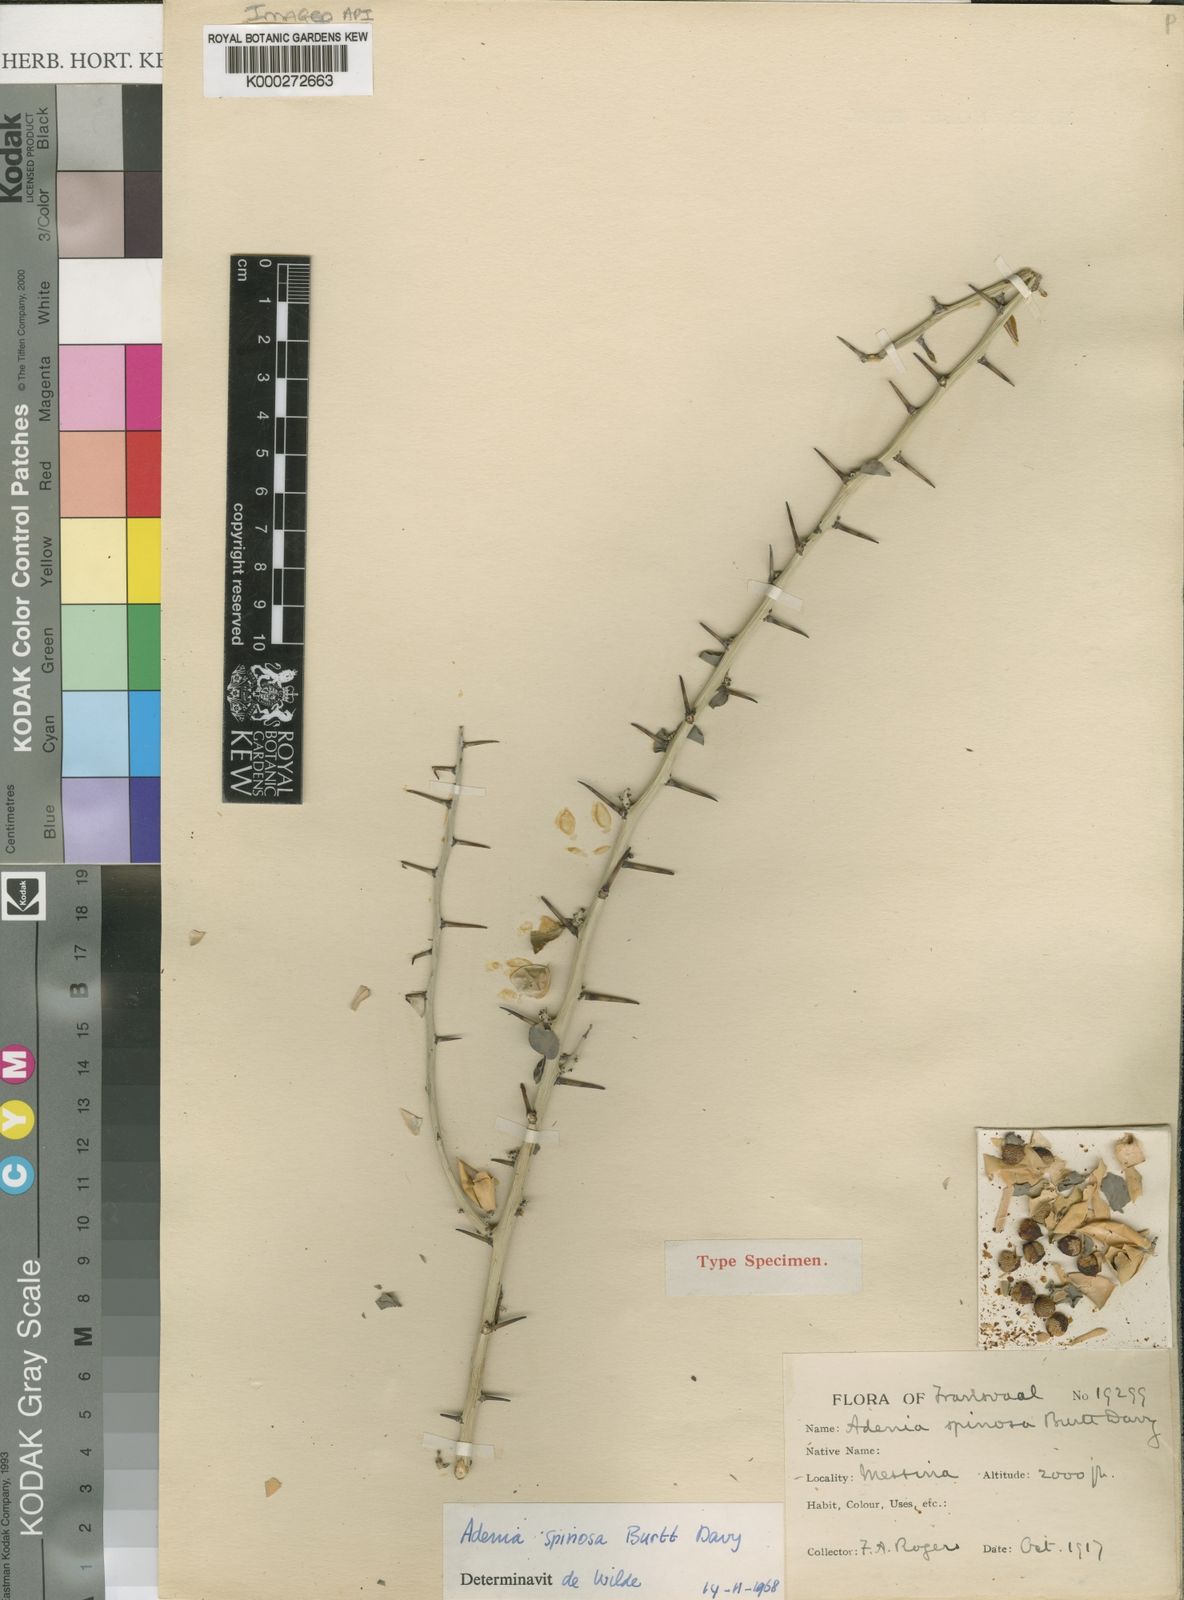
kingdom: Plantae
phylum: Tracheophyta
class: Magnoliopsida
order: Malpighiales
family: Passifloraceae
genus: Adenia
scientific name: Adenia spinosa
